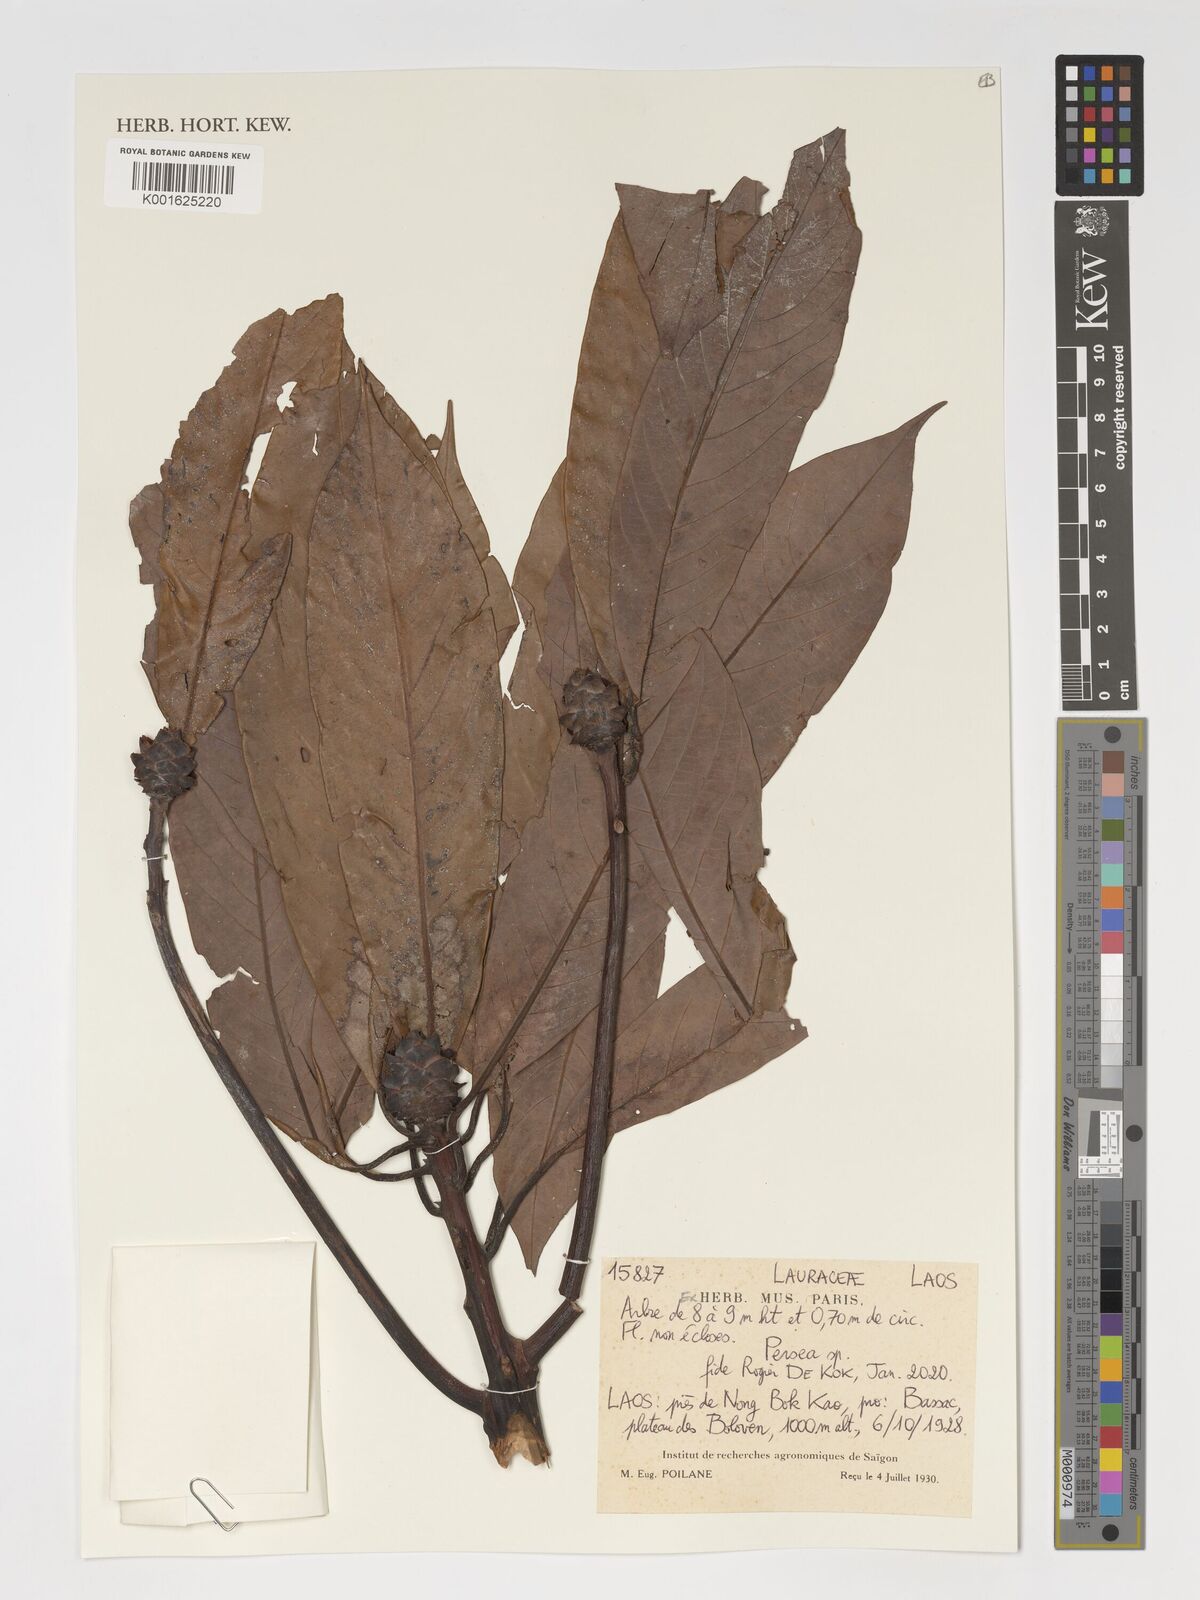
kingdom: Plantae
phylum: Tracheophyta
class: Magnoliopsida
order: Laurales
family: Lauraceae
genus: Persea
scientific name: Persea
